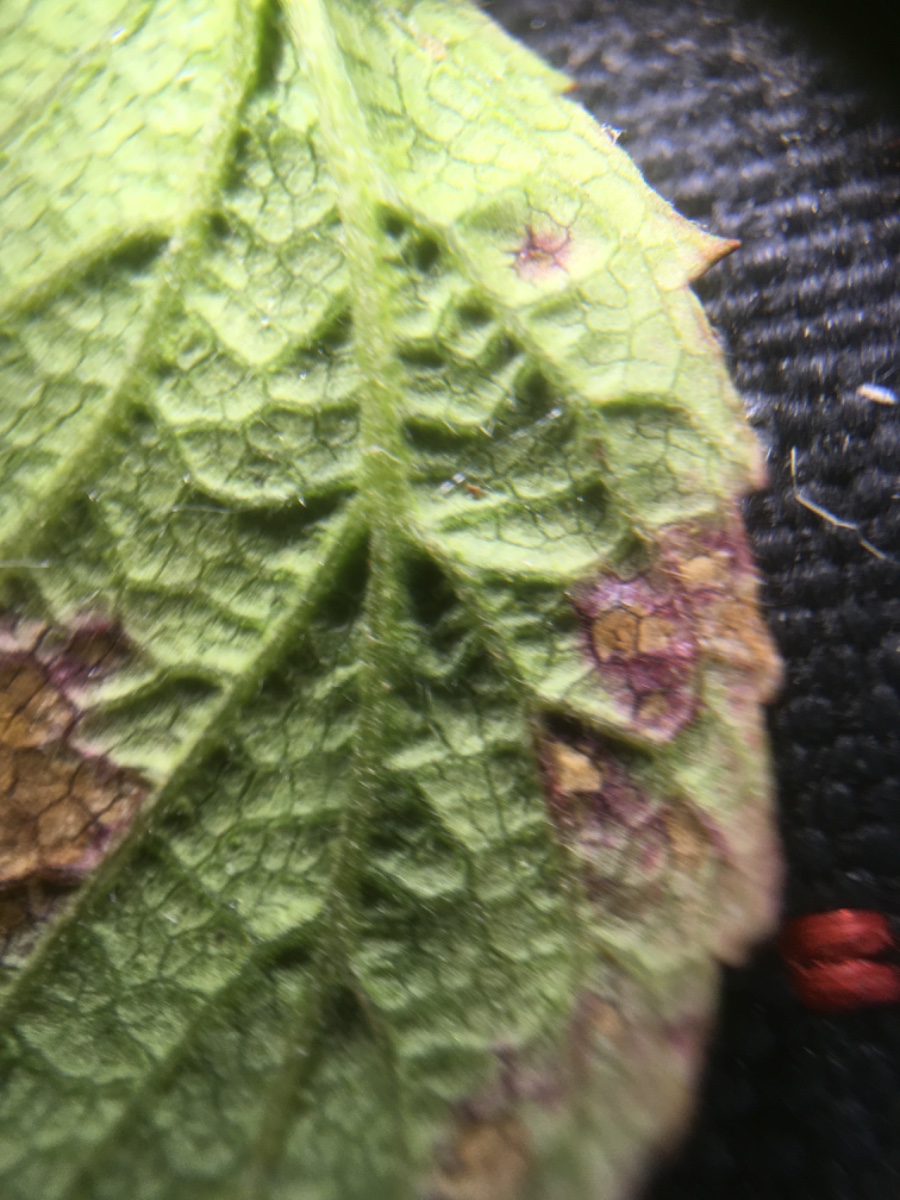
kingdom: Fungi
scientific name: Fungi
